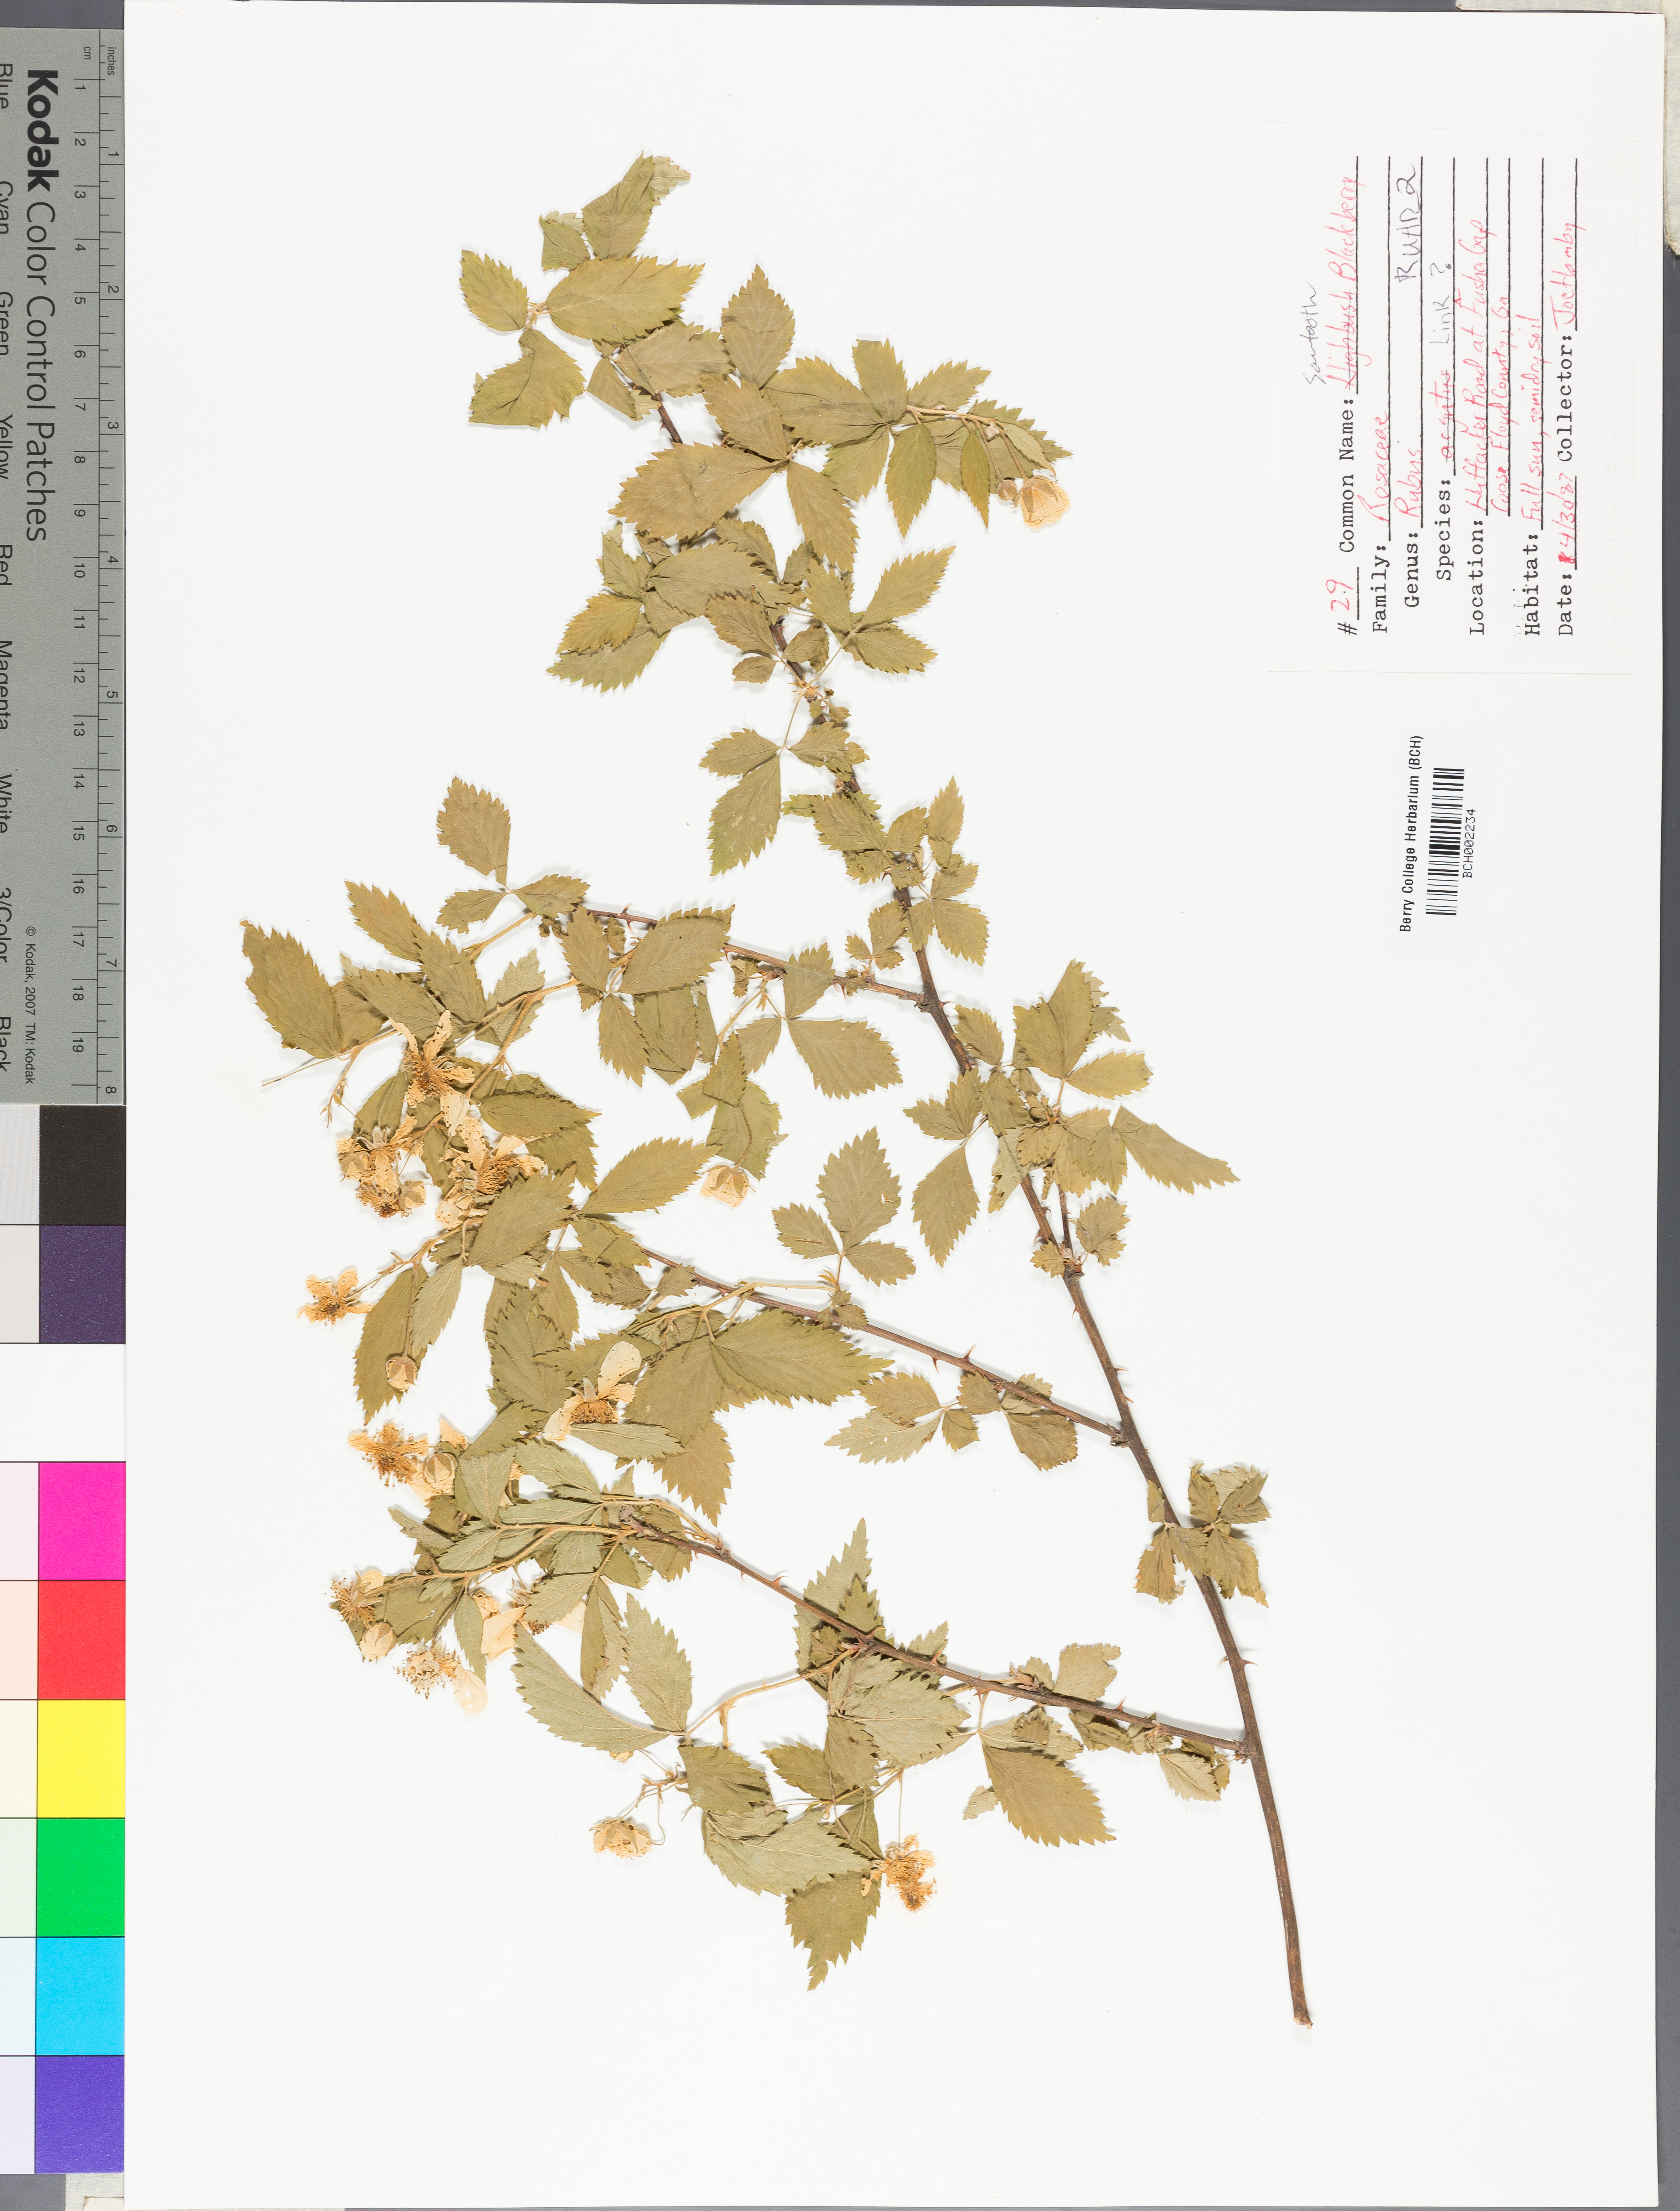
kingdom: Plantae
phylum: Tracheophyta
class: Magnoliopsida
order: Rosales
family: Rosaceae
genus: Rubus
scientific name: Rubus argutus
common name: Sawtooth blackberry
